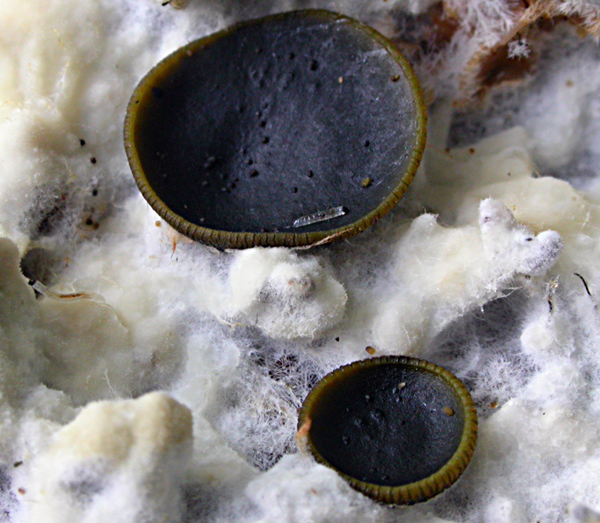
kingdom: Fungi
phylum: Ascomycota
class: Dothideomycetes
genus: Catinella
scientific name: Catinella olivacea
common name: olivenskive
